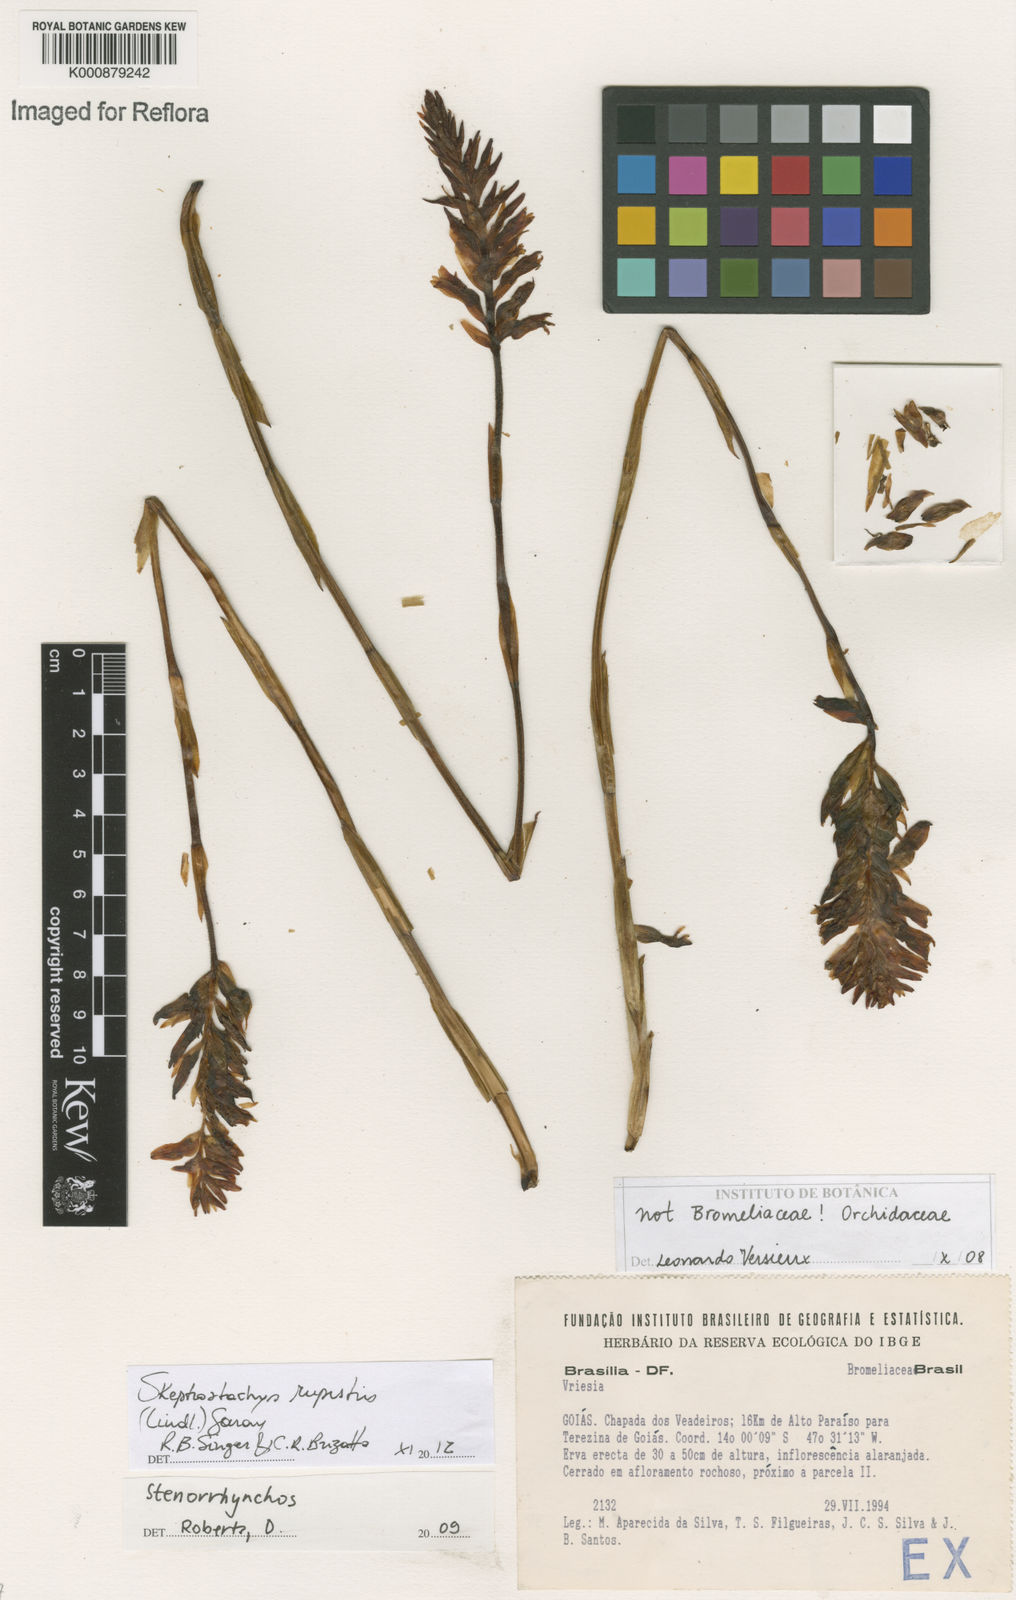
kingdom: Plantae
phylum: Tracheophyta
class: Liliopsida
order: Asparagales
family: Orchidaceae
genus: Skeptrostachys
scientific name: Skeptrostachys rupestris
